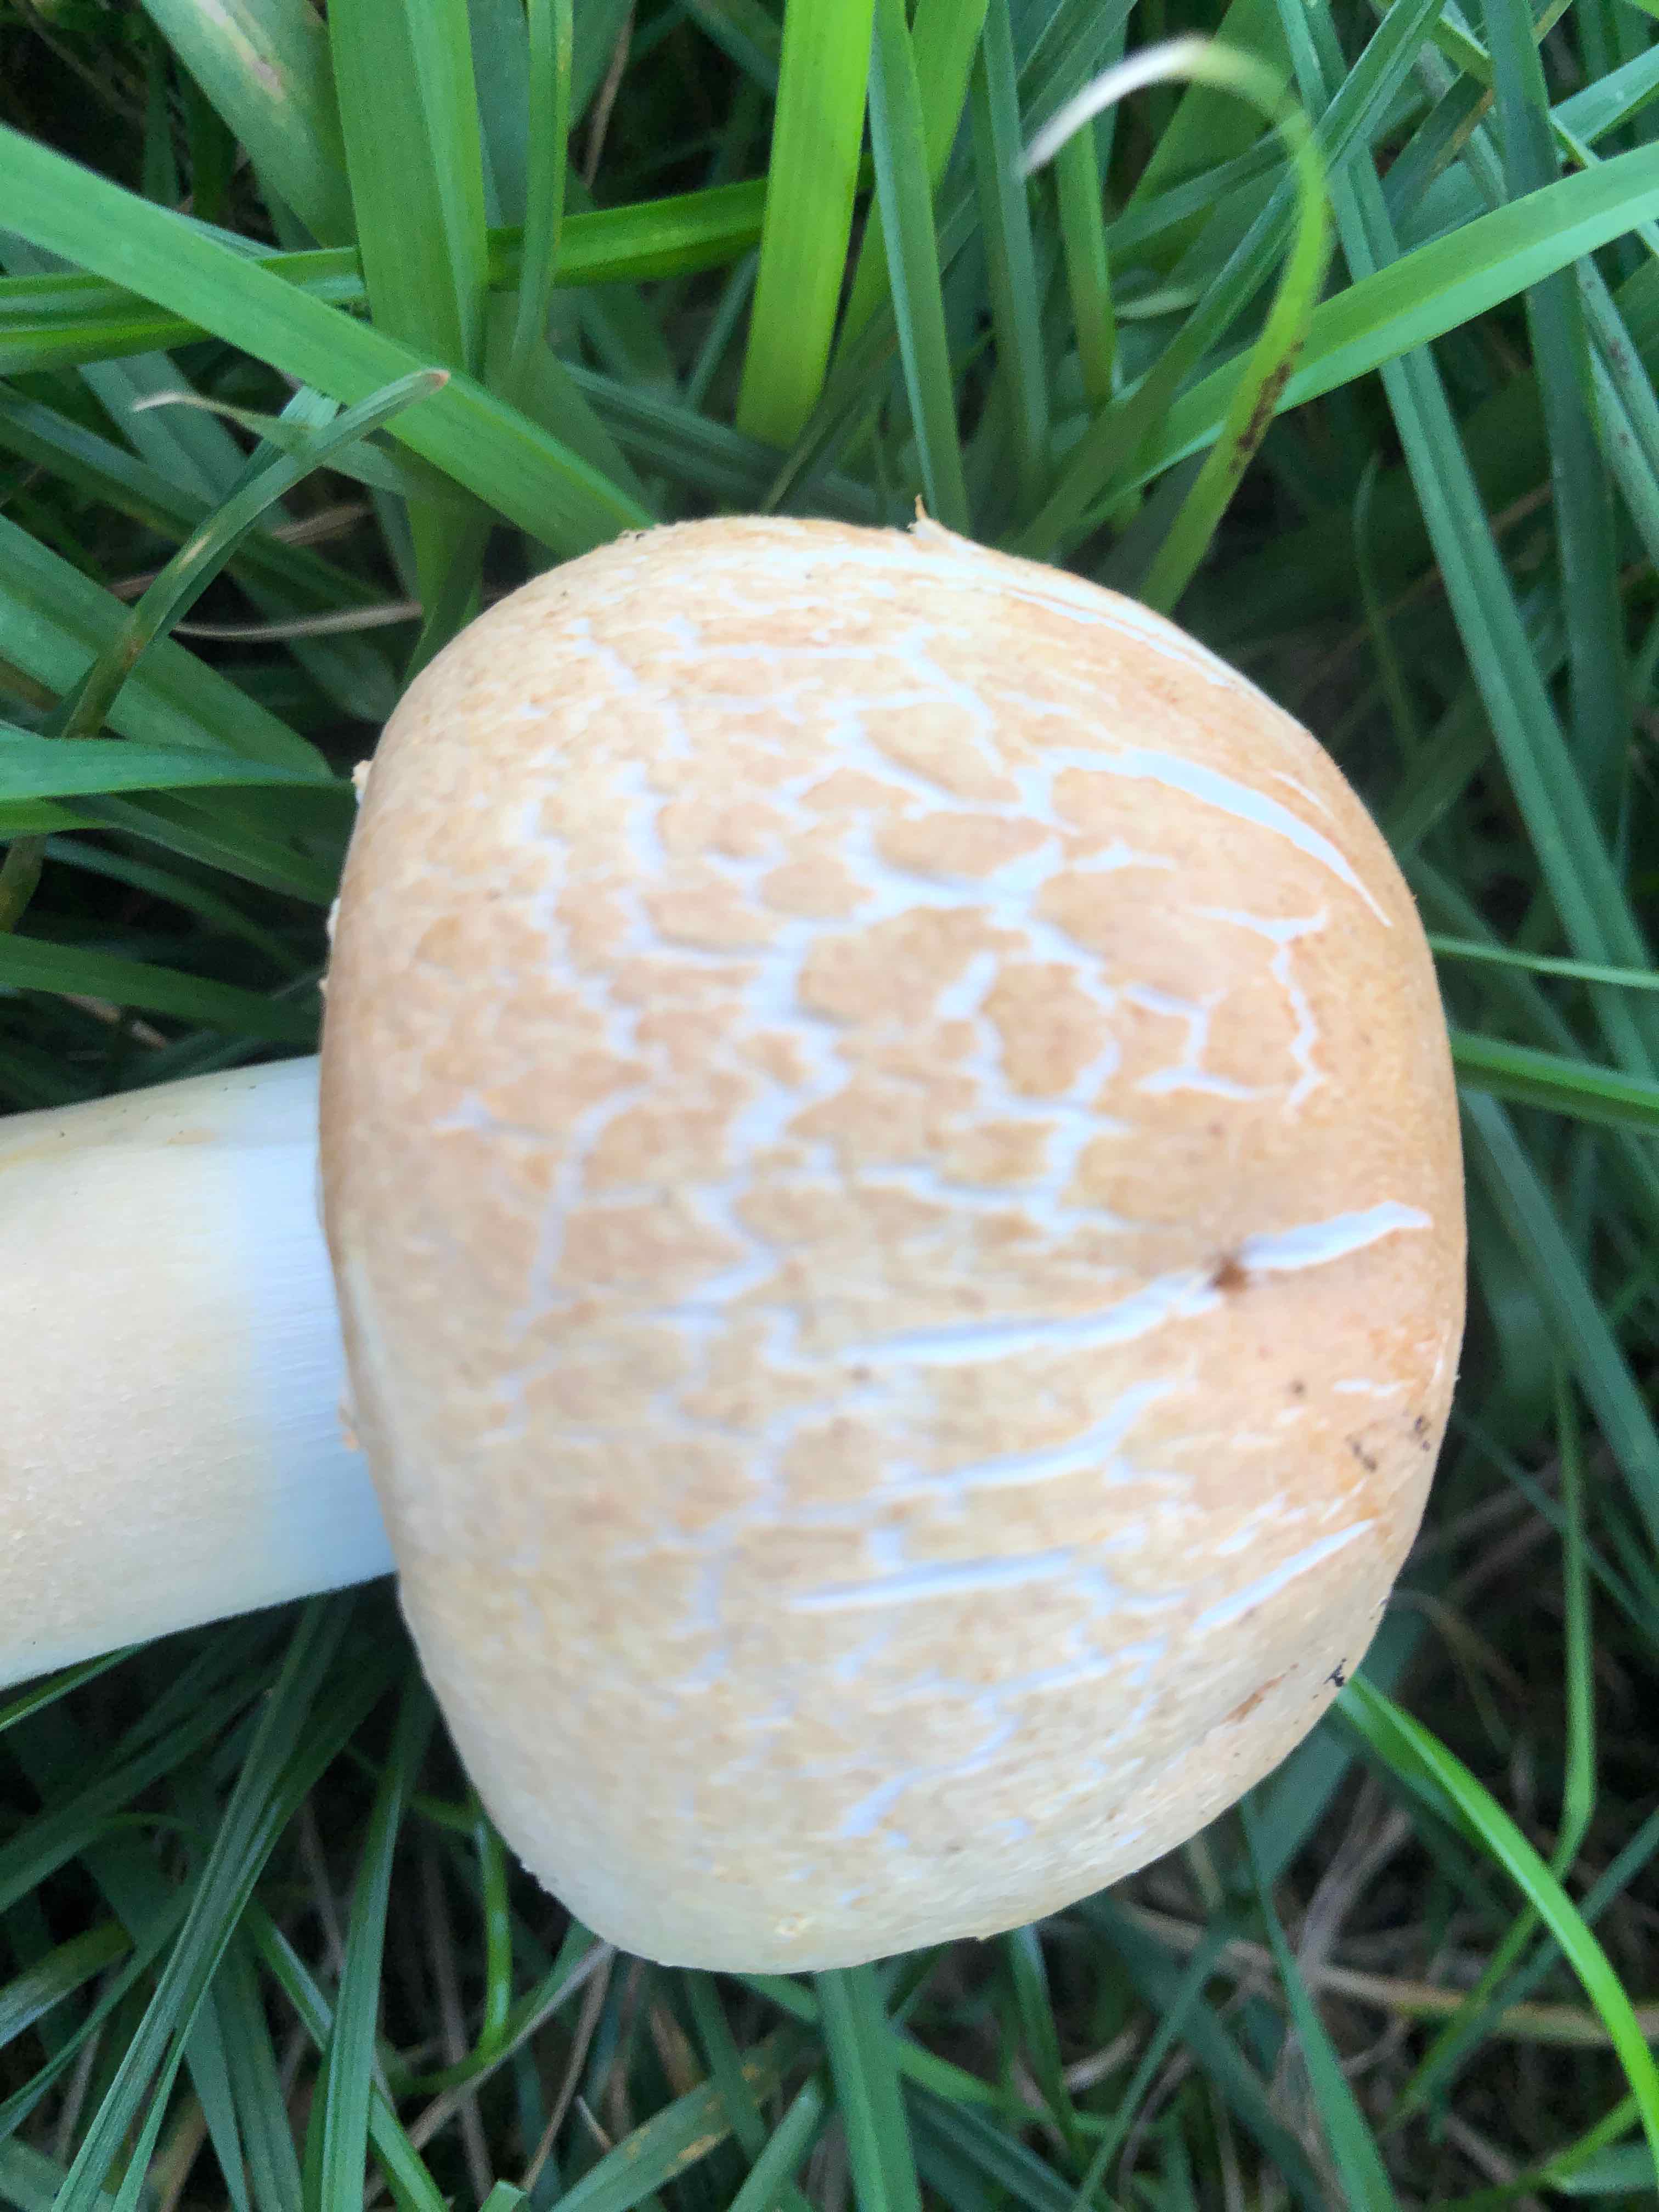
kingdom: Fungi
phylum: Basidiomycota
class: Agaricomycetes
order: Agaricales
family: Agaricaceae
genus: Agaricus
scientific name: Agaricus arvensis
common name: sprukken champignon
